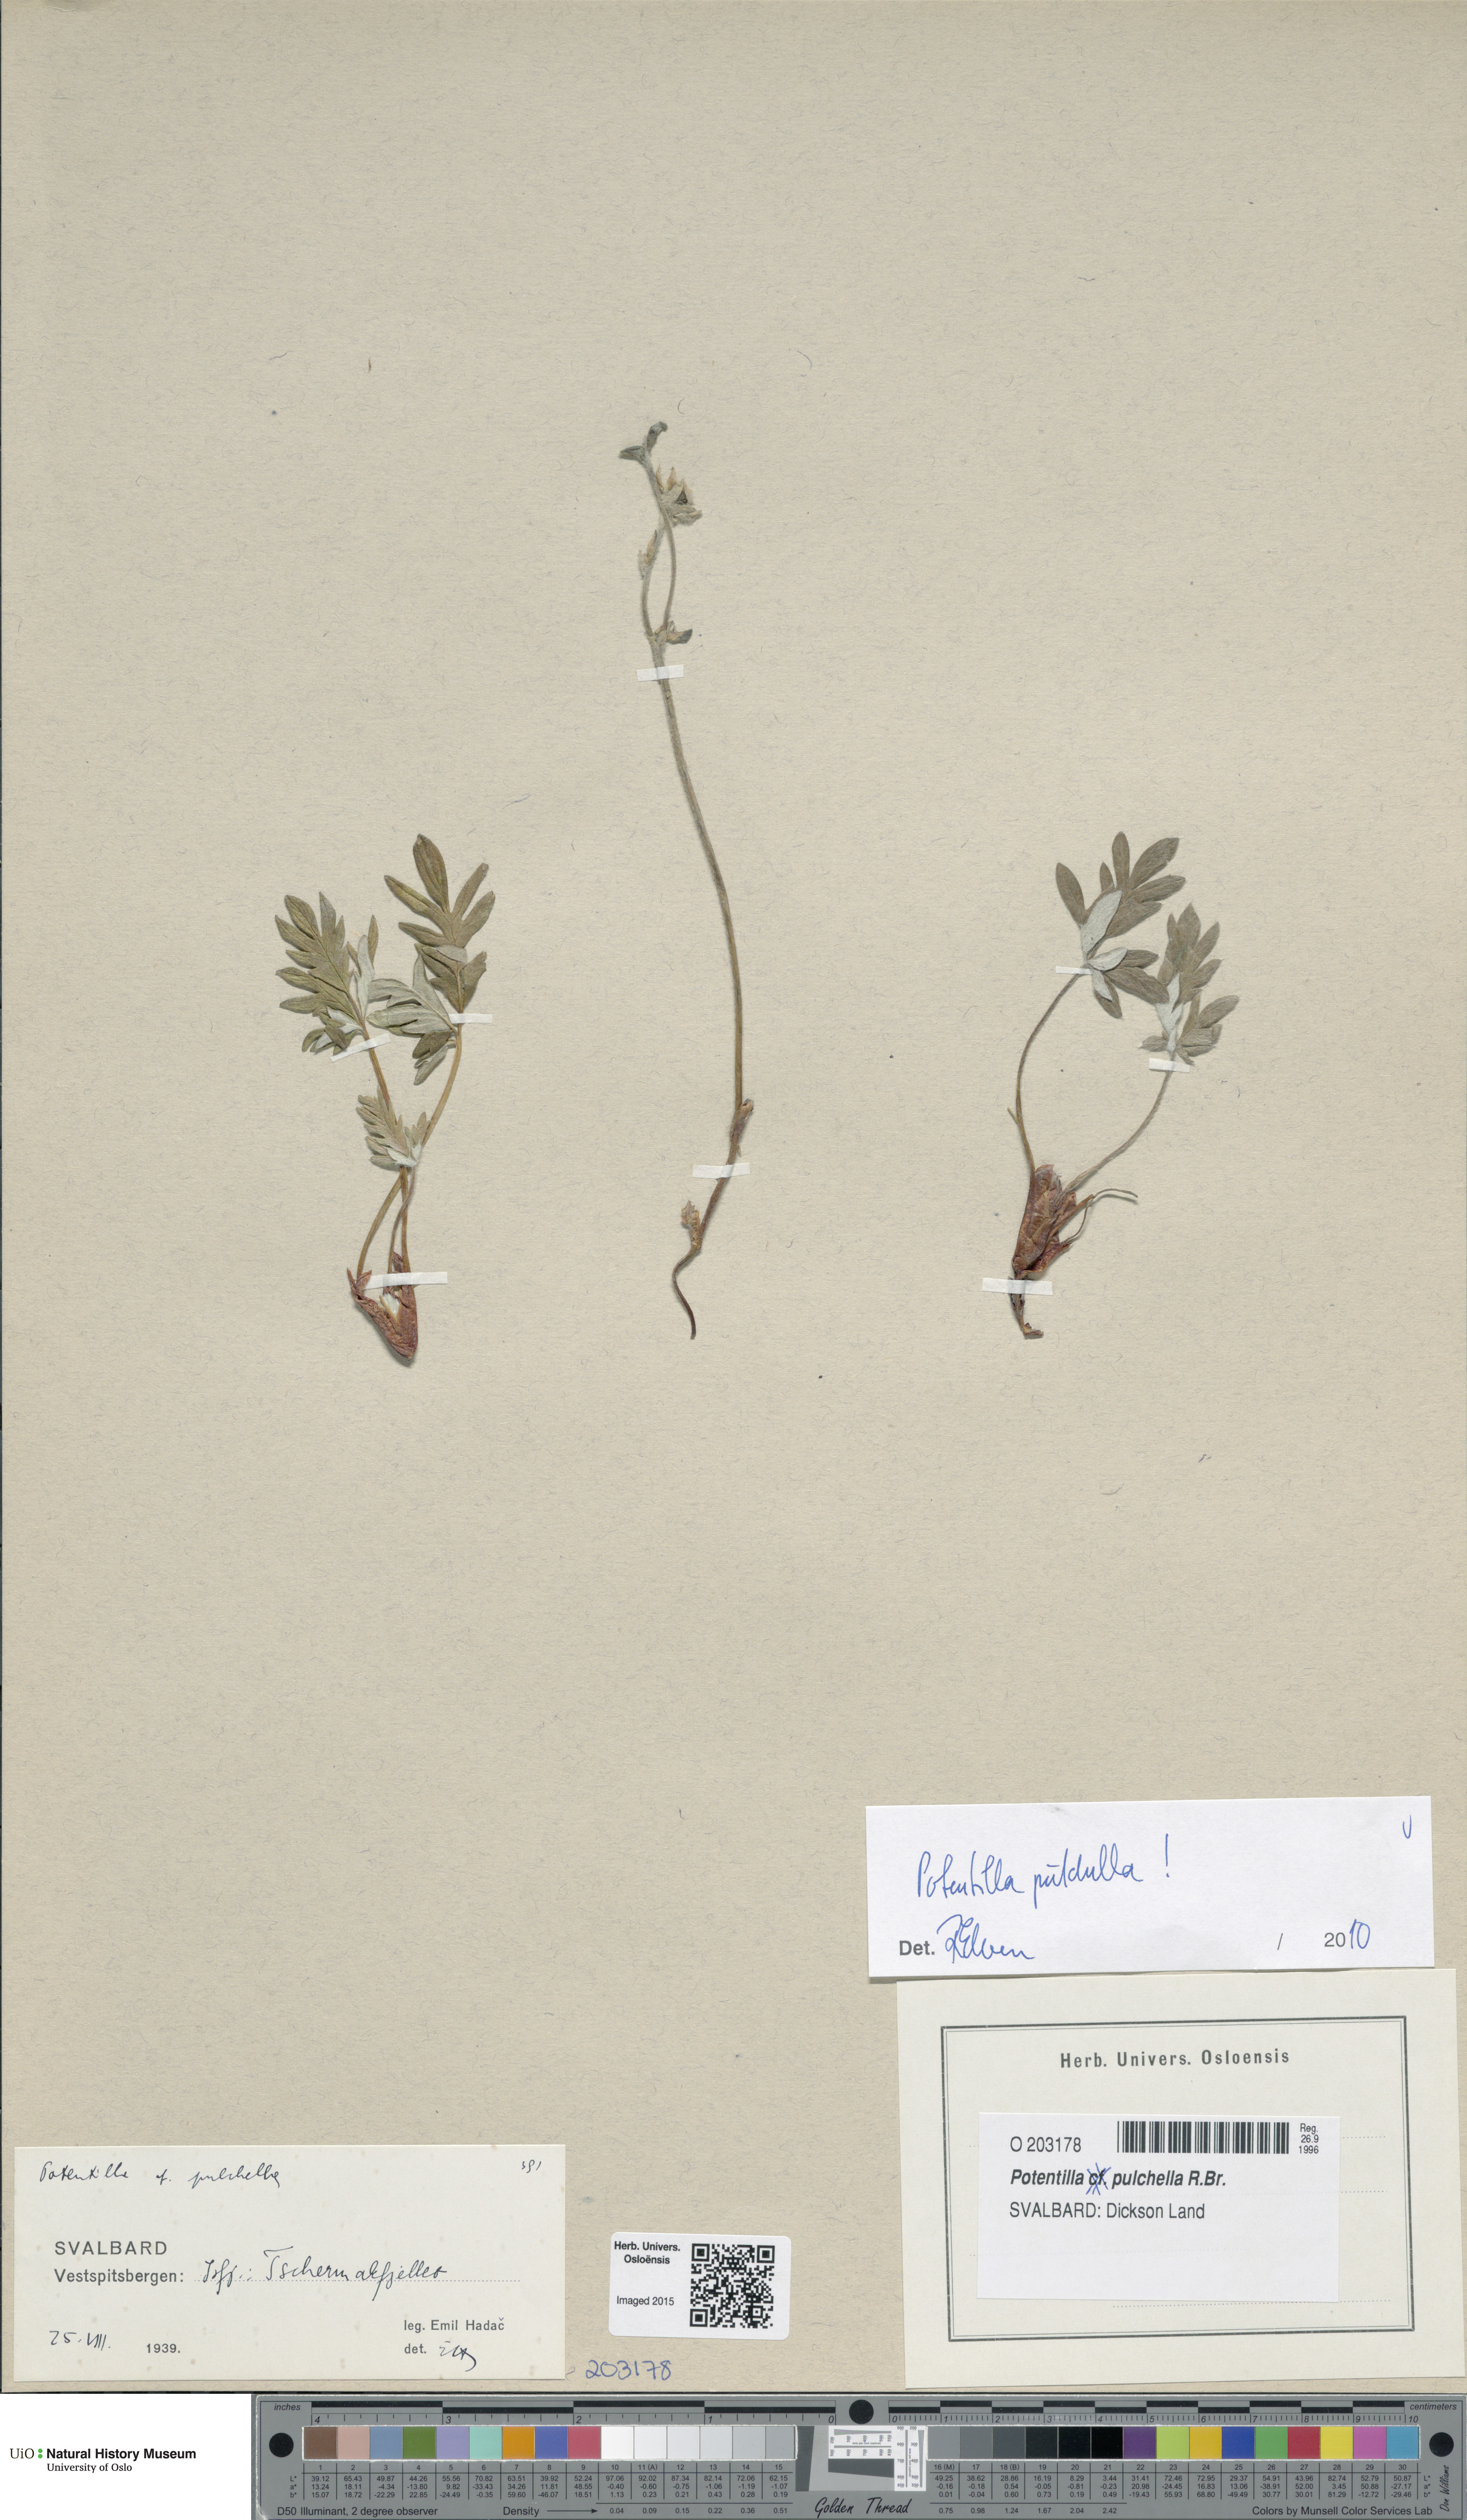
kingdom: Plantae
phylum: Tracheophyta
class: Magnoliopsida
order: Rosales
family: Rosaceae
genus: Potentilla
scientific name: Potentilla pulchella
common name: Pretty cinquefoil
